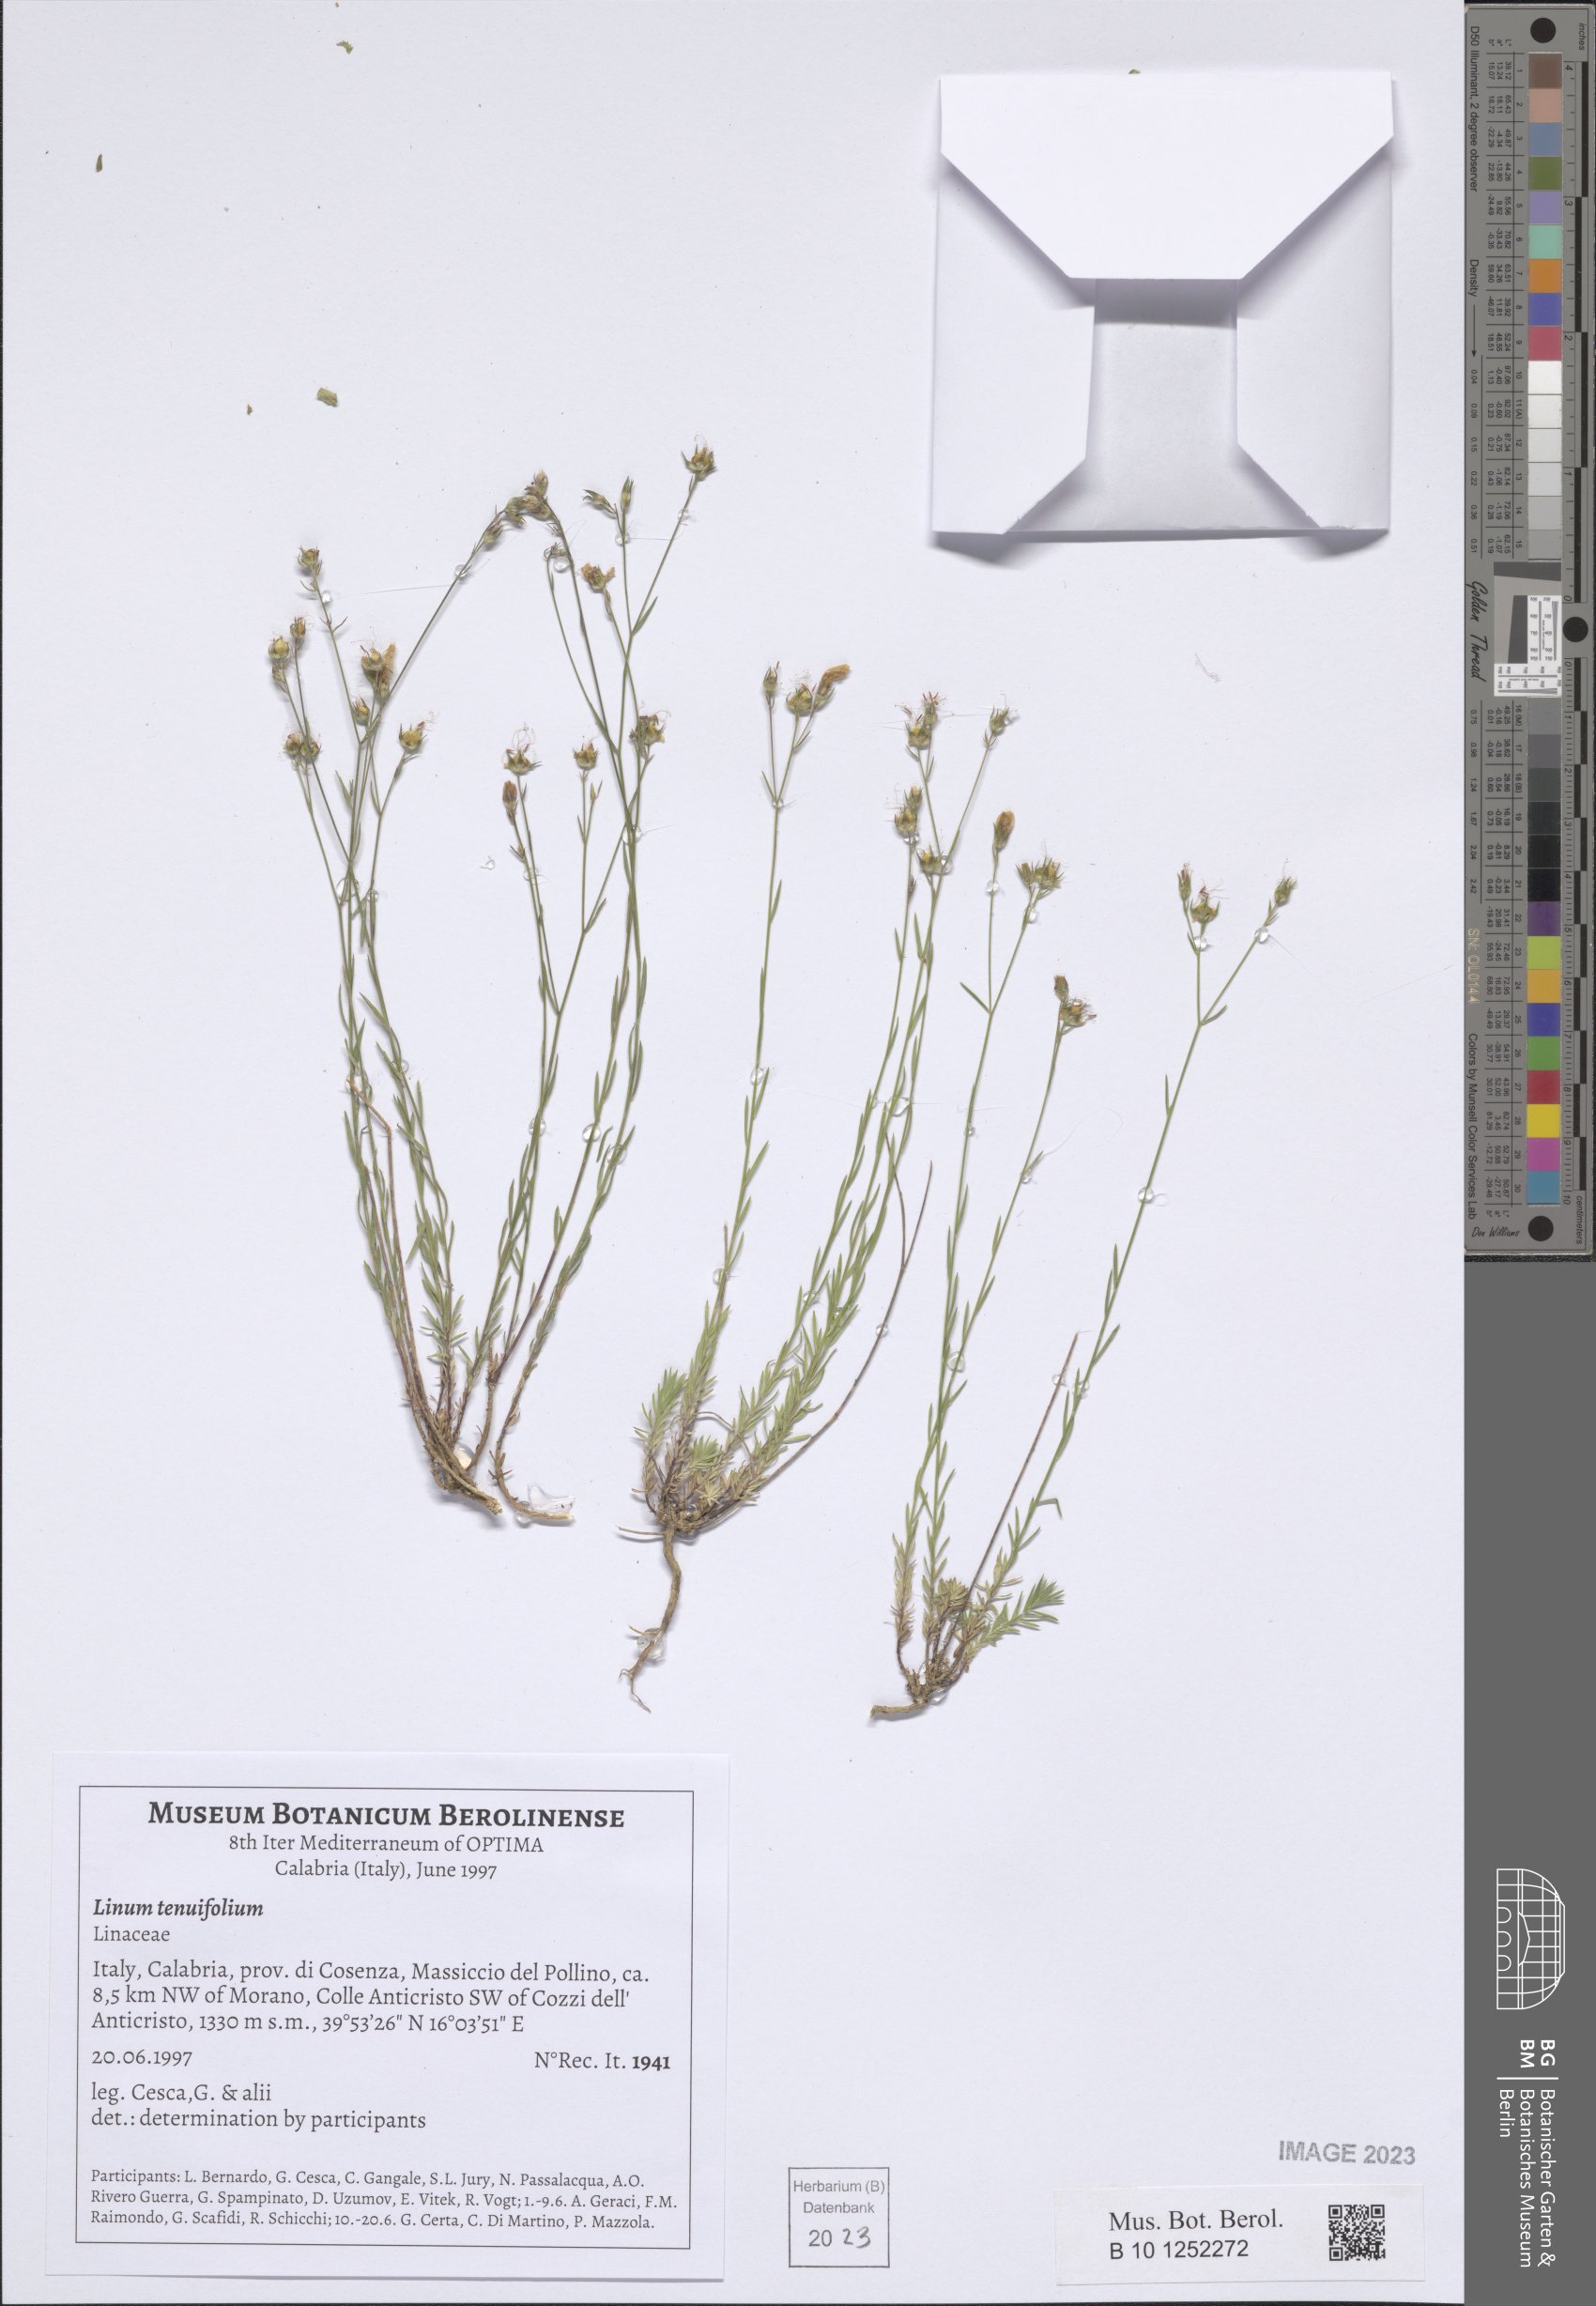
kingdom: Plantae
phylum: Tracheophyta
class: Magnoliopsida
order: Malpighiales
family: Linaceae
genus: Linum
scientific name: Linum tenuifolium
